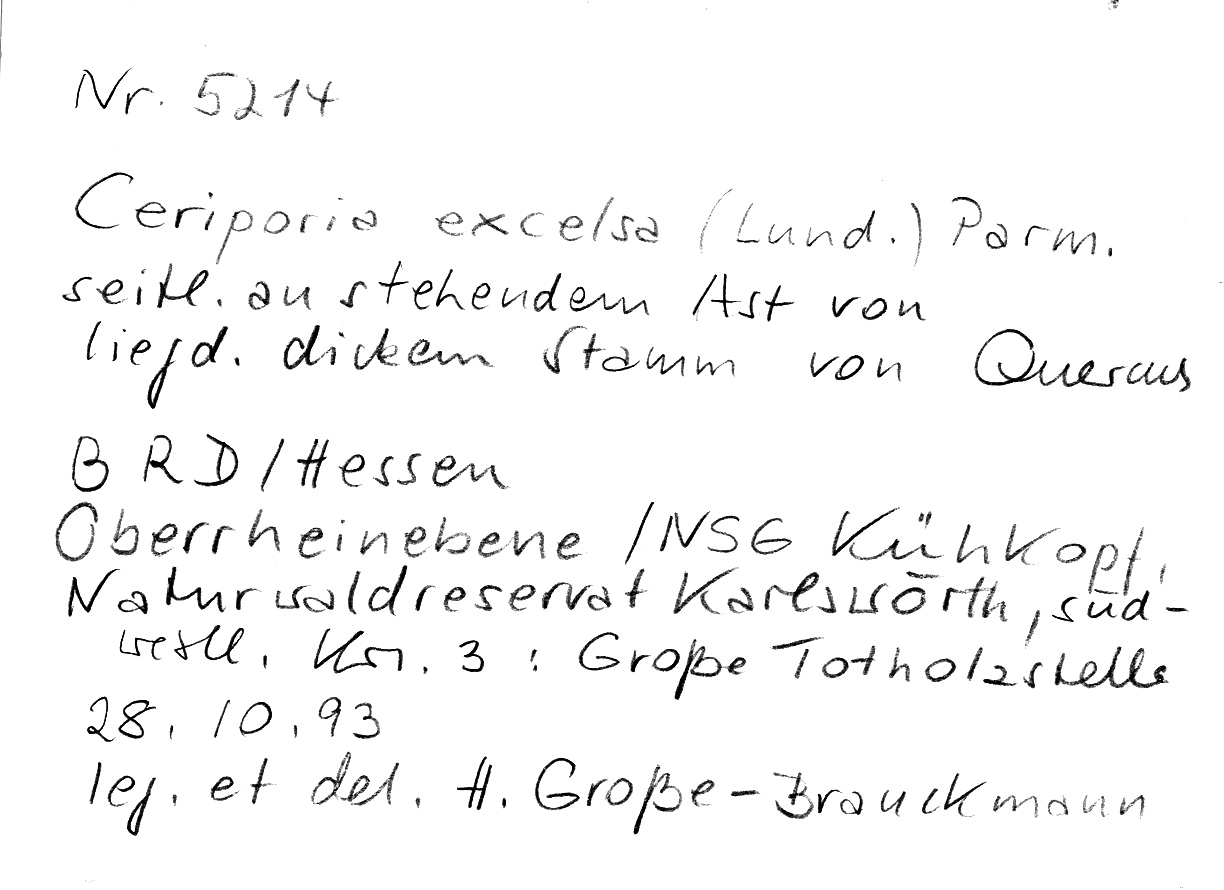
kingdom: Plantae
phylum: Tracheophyta
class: Magnoliopsida
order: Fagales
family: Fagaceae
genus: Quercus
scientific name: Quercus
